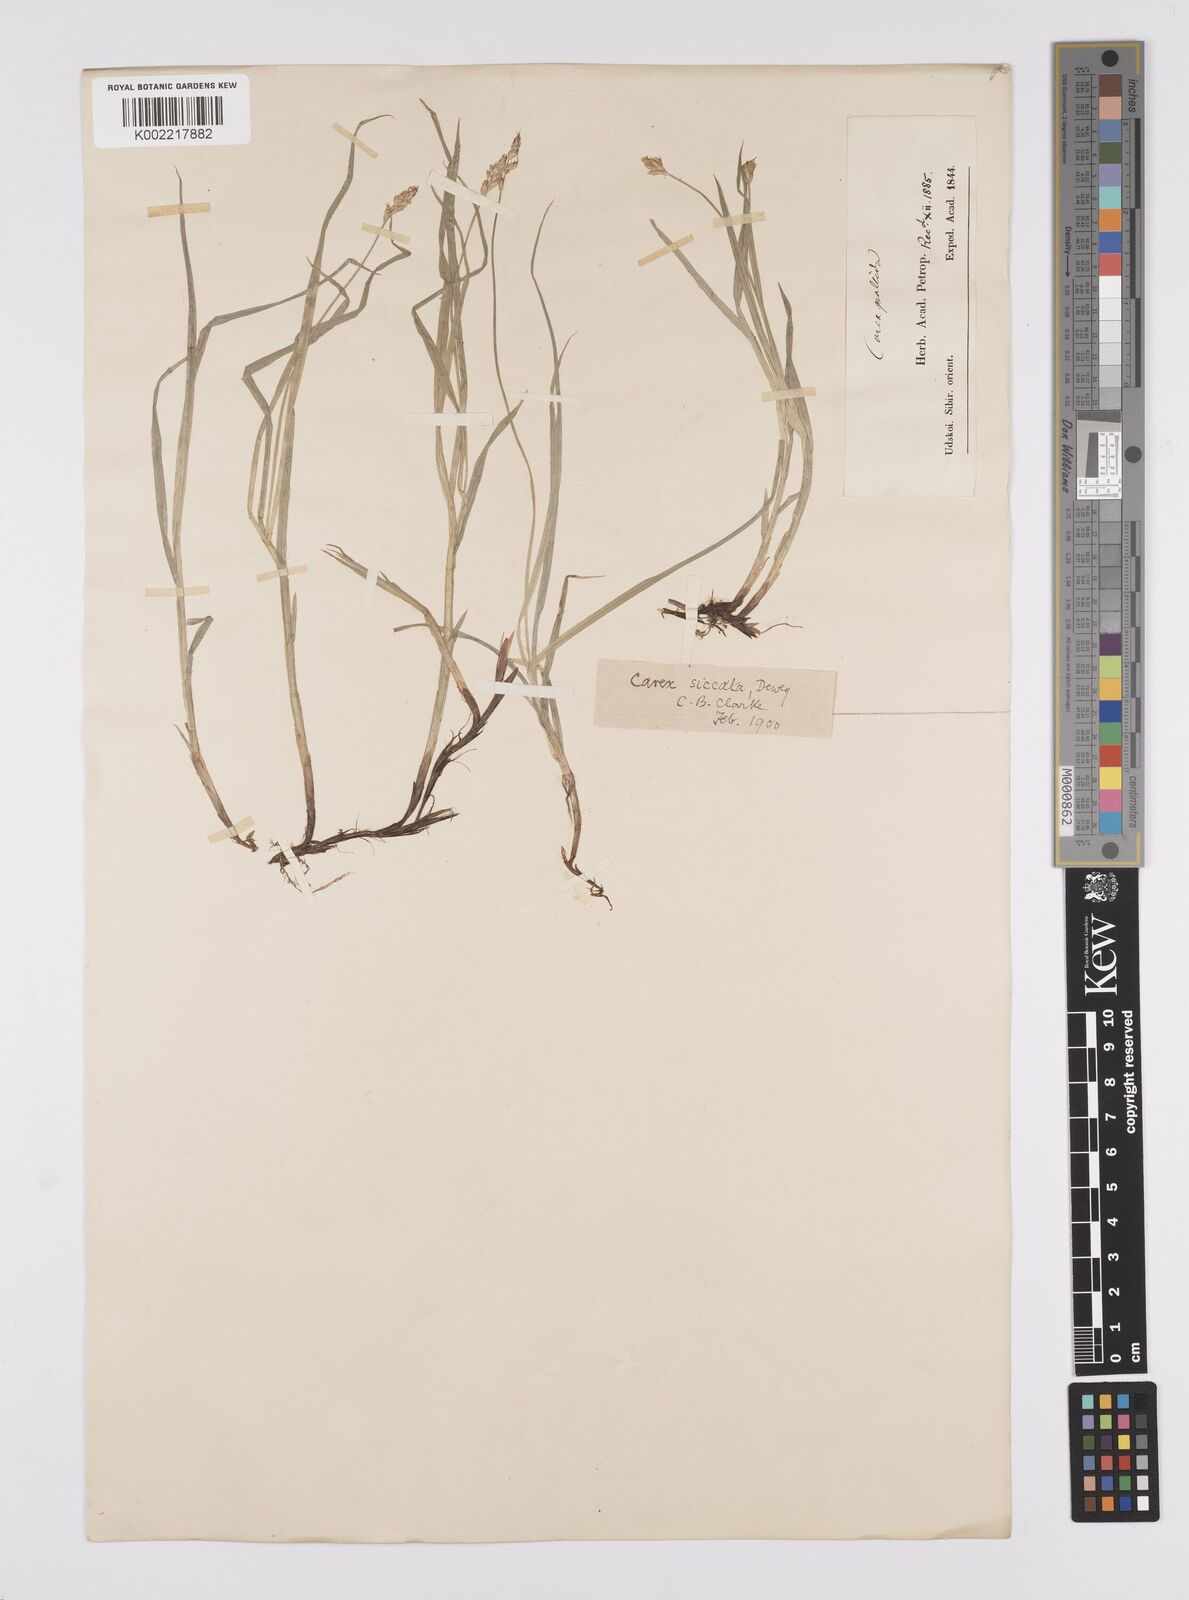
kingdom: Plantae
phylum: Tracheophyta
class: Liliopsida
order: Poales
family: Cyperaceae
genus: Carex
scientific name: Carex siccata
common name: Dry sedge
